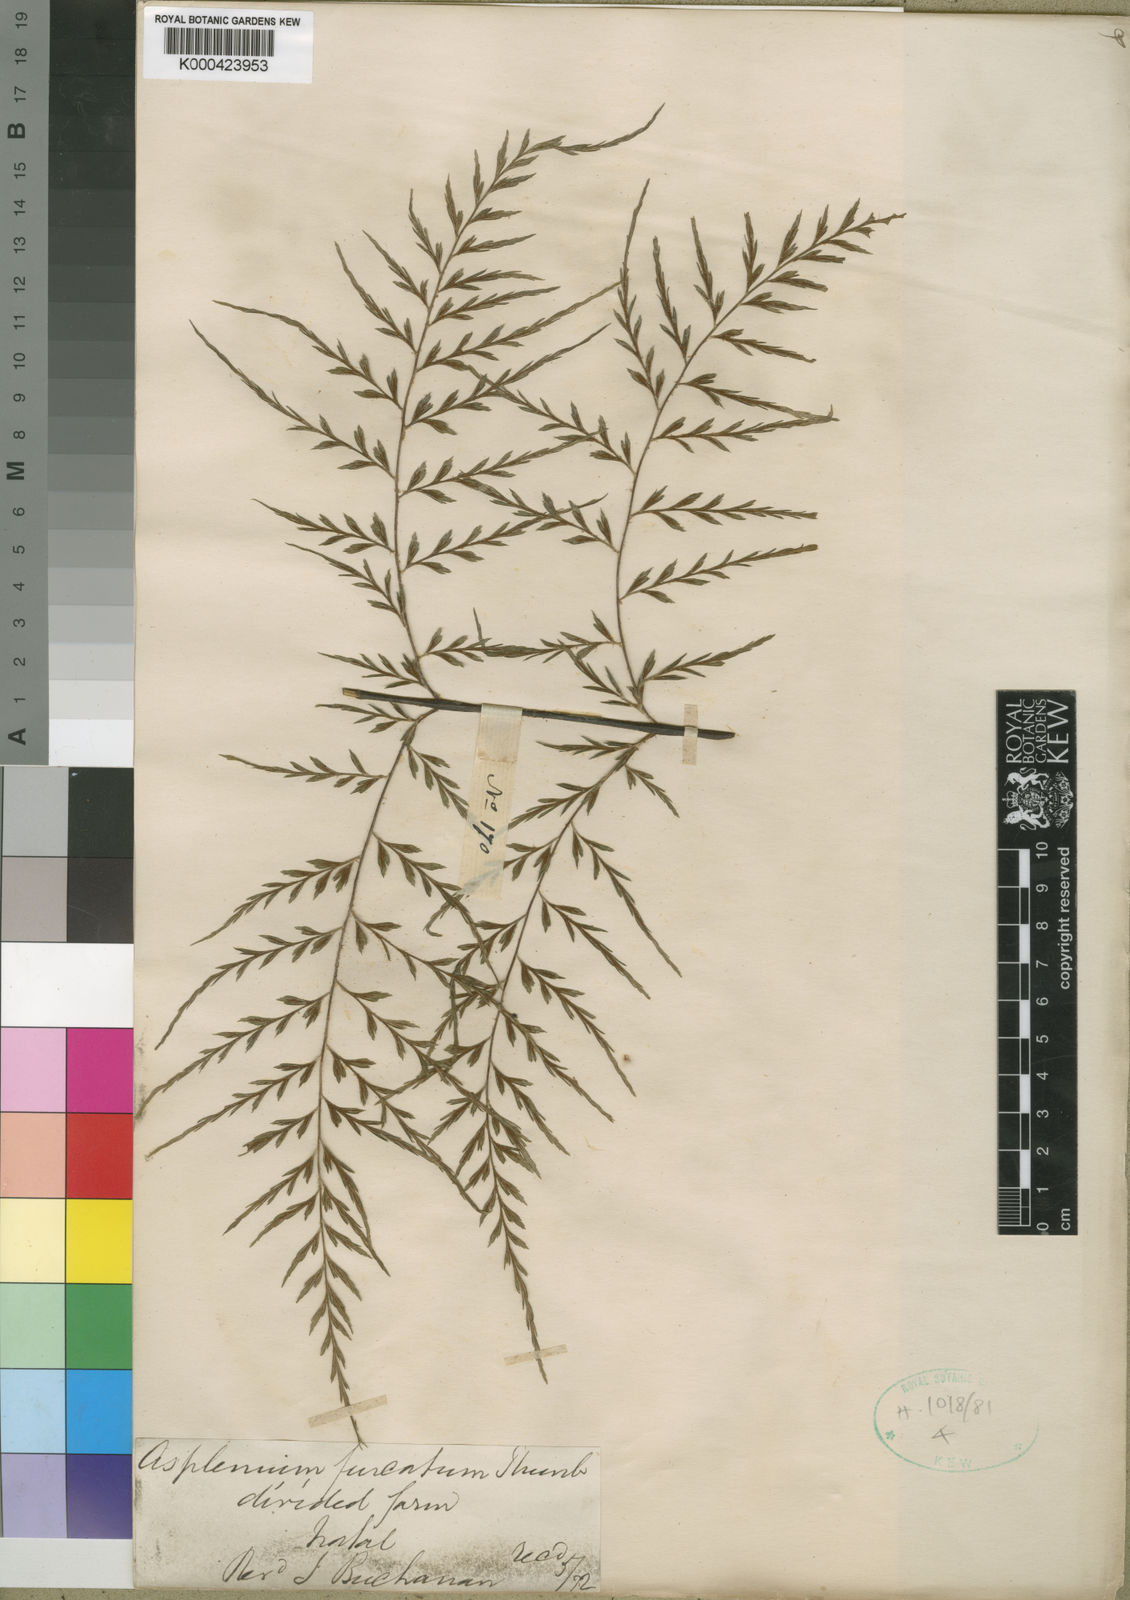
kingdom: Plantae
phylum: Tracheophyta
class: Polypodiopsida
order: Polypodiales
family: Aspleniaceae
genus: Asplenium
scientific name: Asplenium aethiopicum
